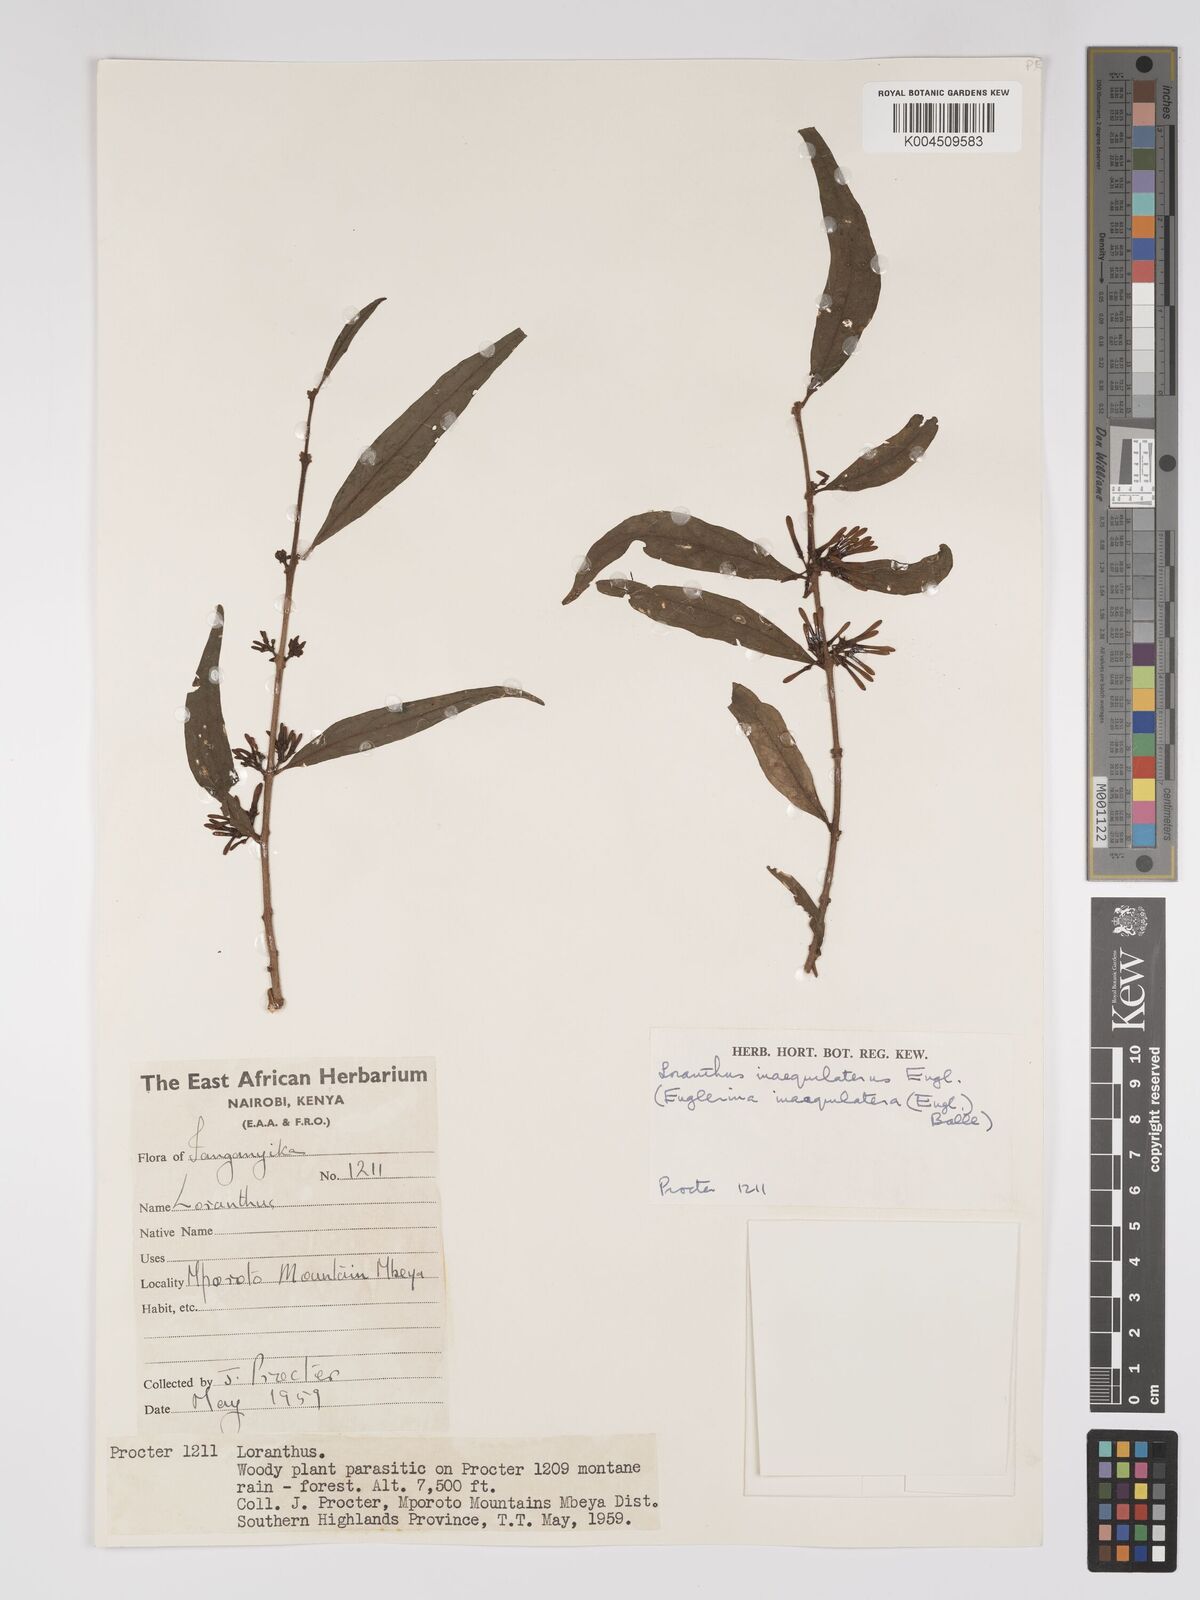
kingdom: Plantae
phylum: Tracheophyta
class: Magnoliopsida
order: Santalales
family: Loranthaceae
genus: Englerina
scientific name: Englerina inaequilatera
